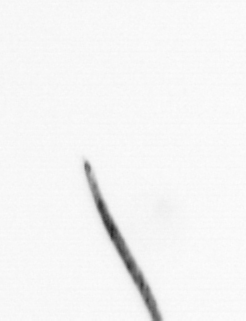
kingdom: Bacteria
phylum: Cyanobacteria
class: Cyanobacteriia
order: Cyanobacteriales
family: Microcoleaceae
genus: Trichodesmium
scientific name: Trichodesmium
